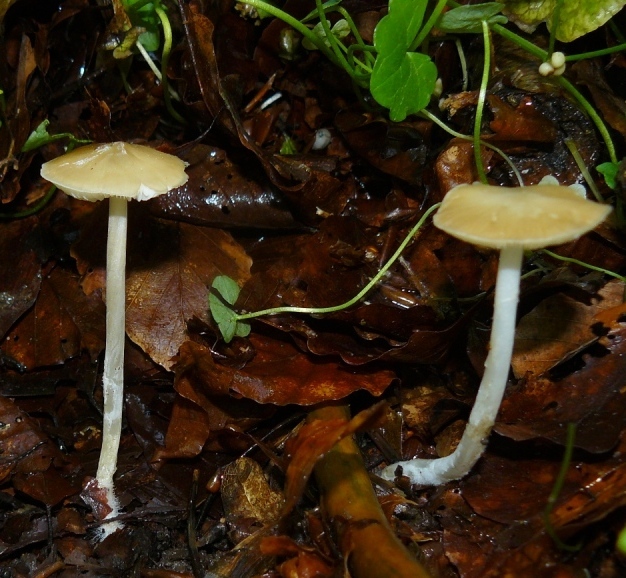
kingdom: Fungi
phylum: Basidiomycota
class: Agaricomycetes
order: Agaricales
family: Porotheleaceae
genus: Hydropodia
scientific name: Hydropodia subalpina
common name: vår-fnugfod
